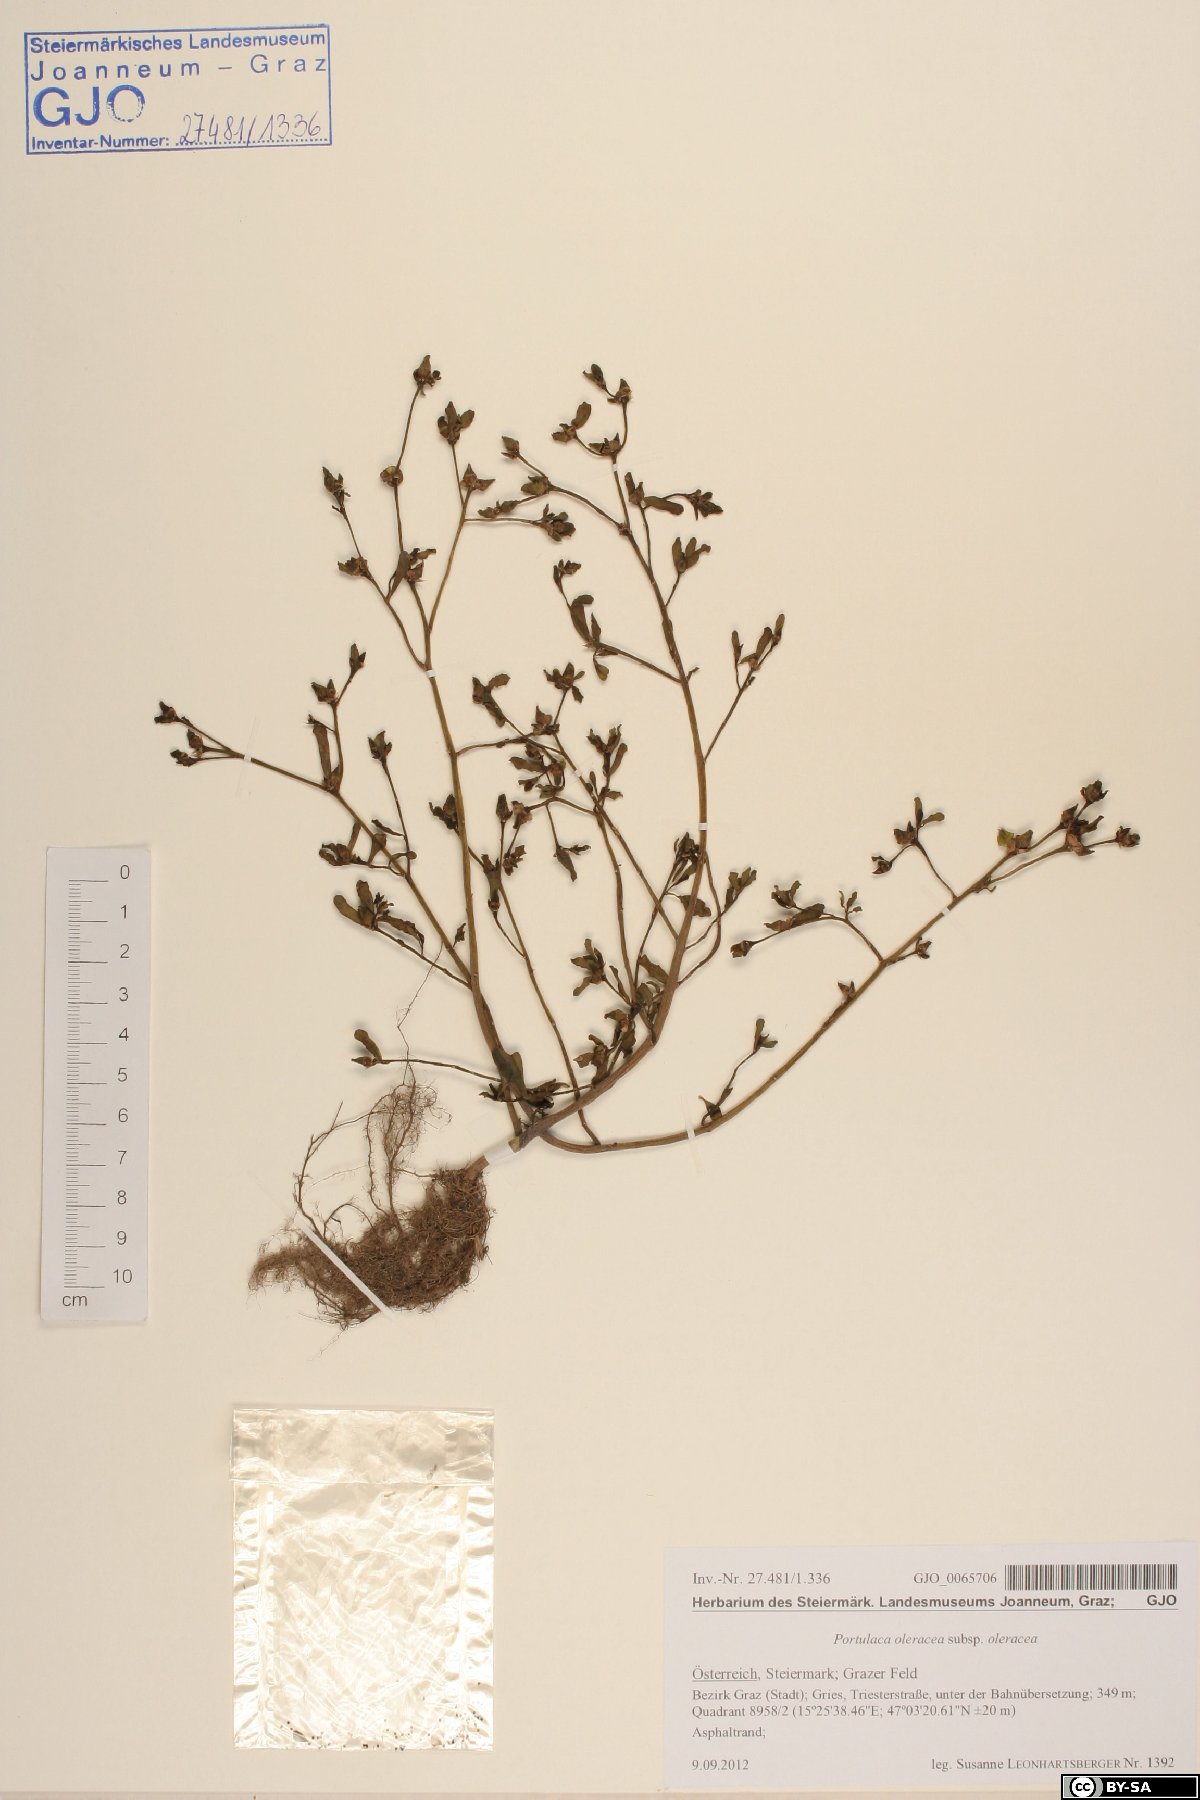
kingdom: Plantae
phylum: Tracheophyta
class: Magnoliopsida
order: Caryophyllales
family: Portulacaceae
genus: Portulaca
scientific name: Portulaca oleracea
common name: Common purslane
